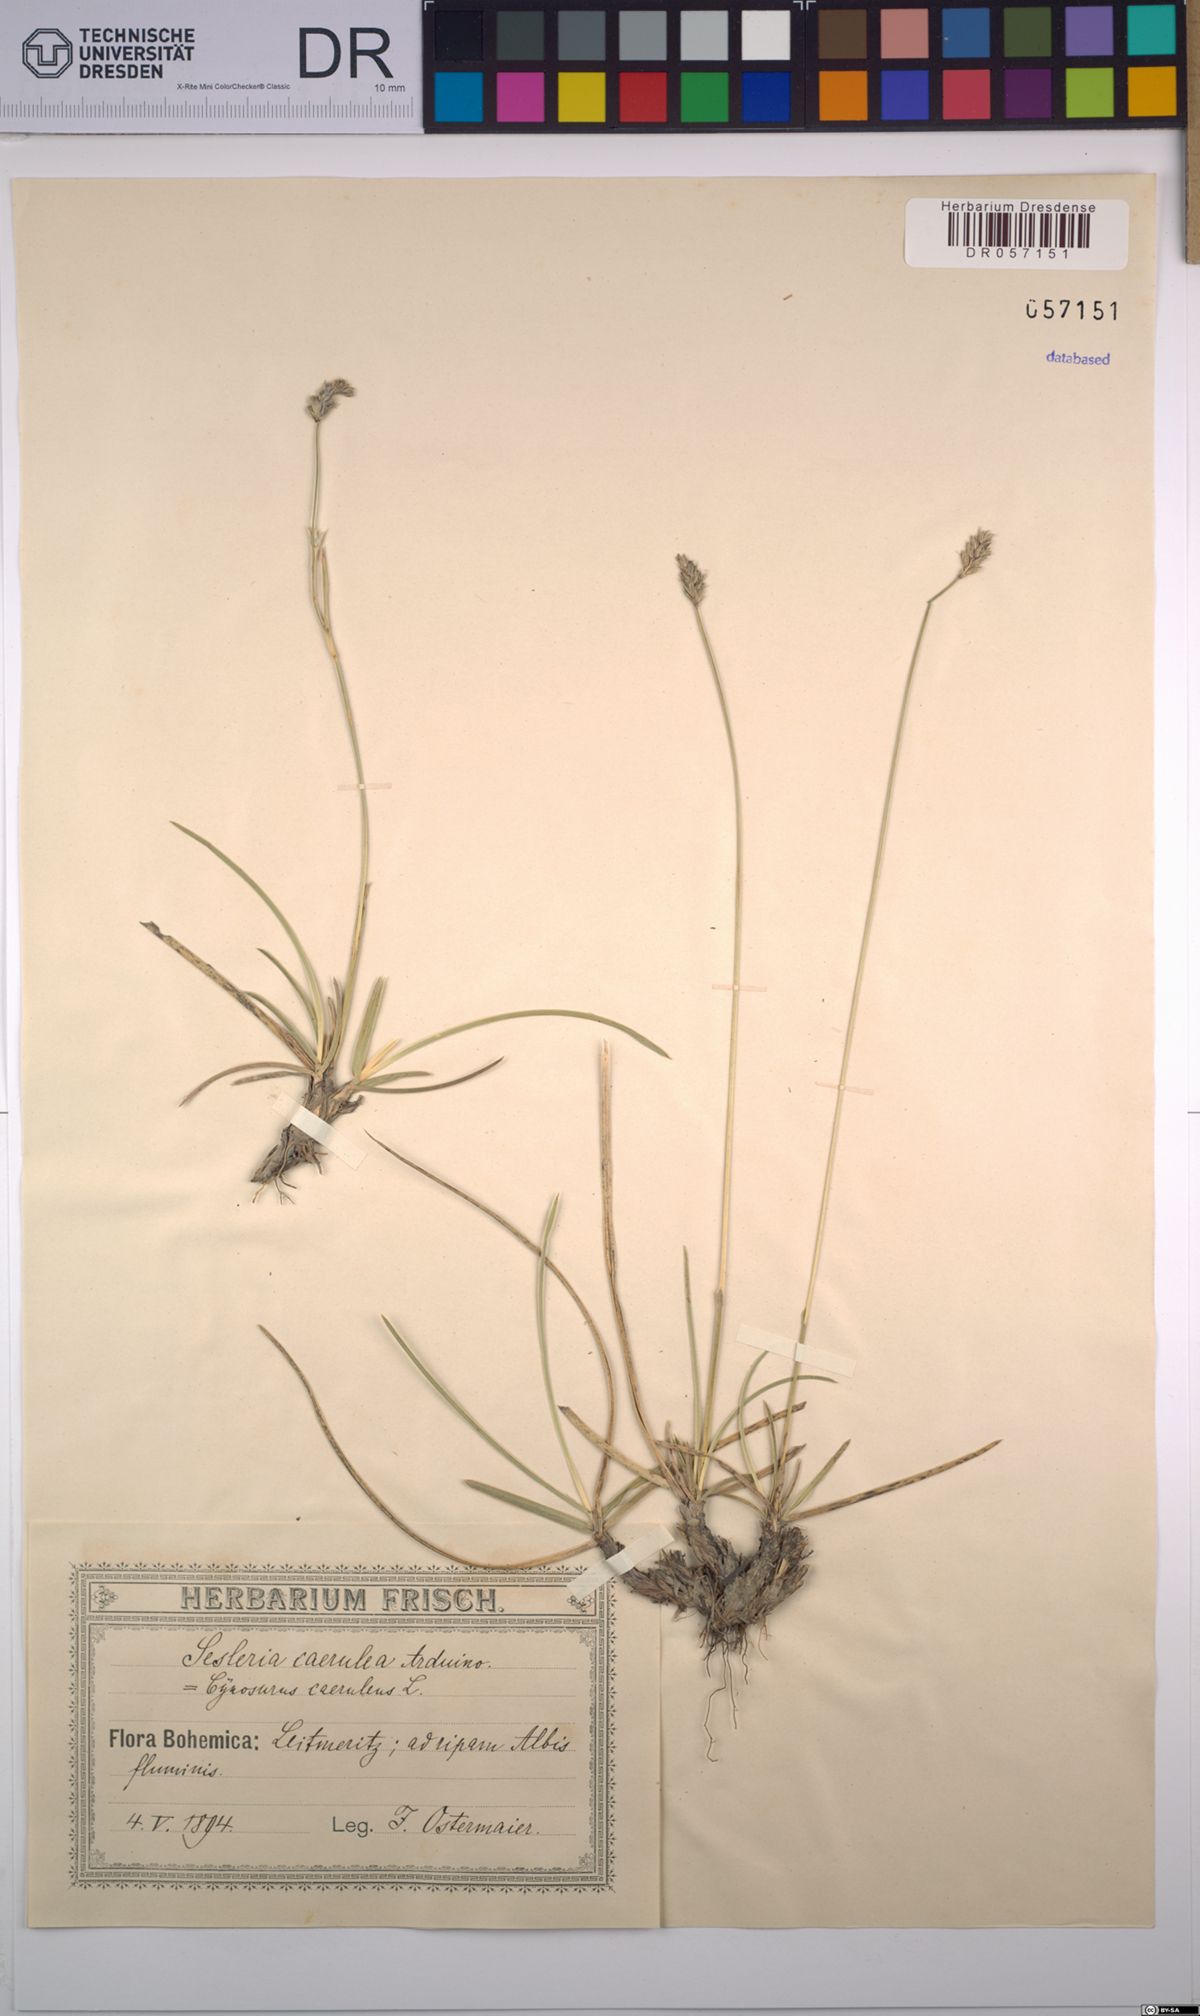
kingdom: Plantae
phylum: Tracheophyta
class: Liliopsida
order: Poales
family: Poaceae
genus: Sesleria
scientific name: Sesleria caerulea
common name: Blue moor-grass
